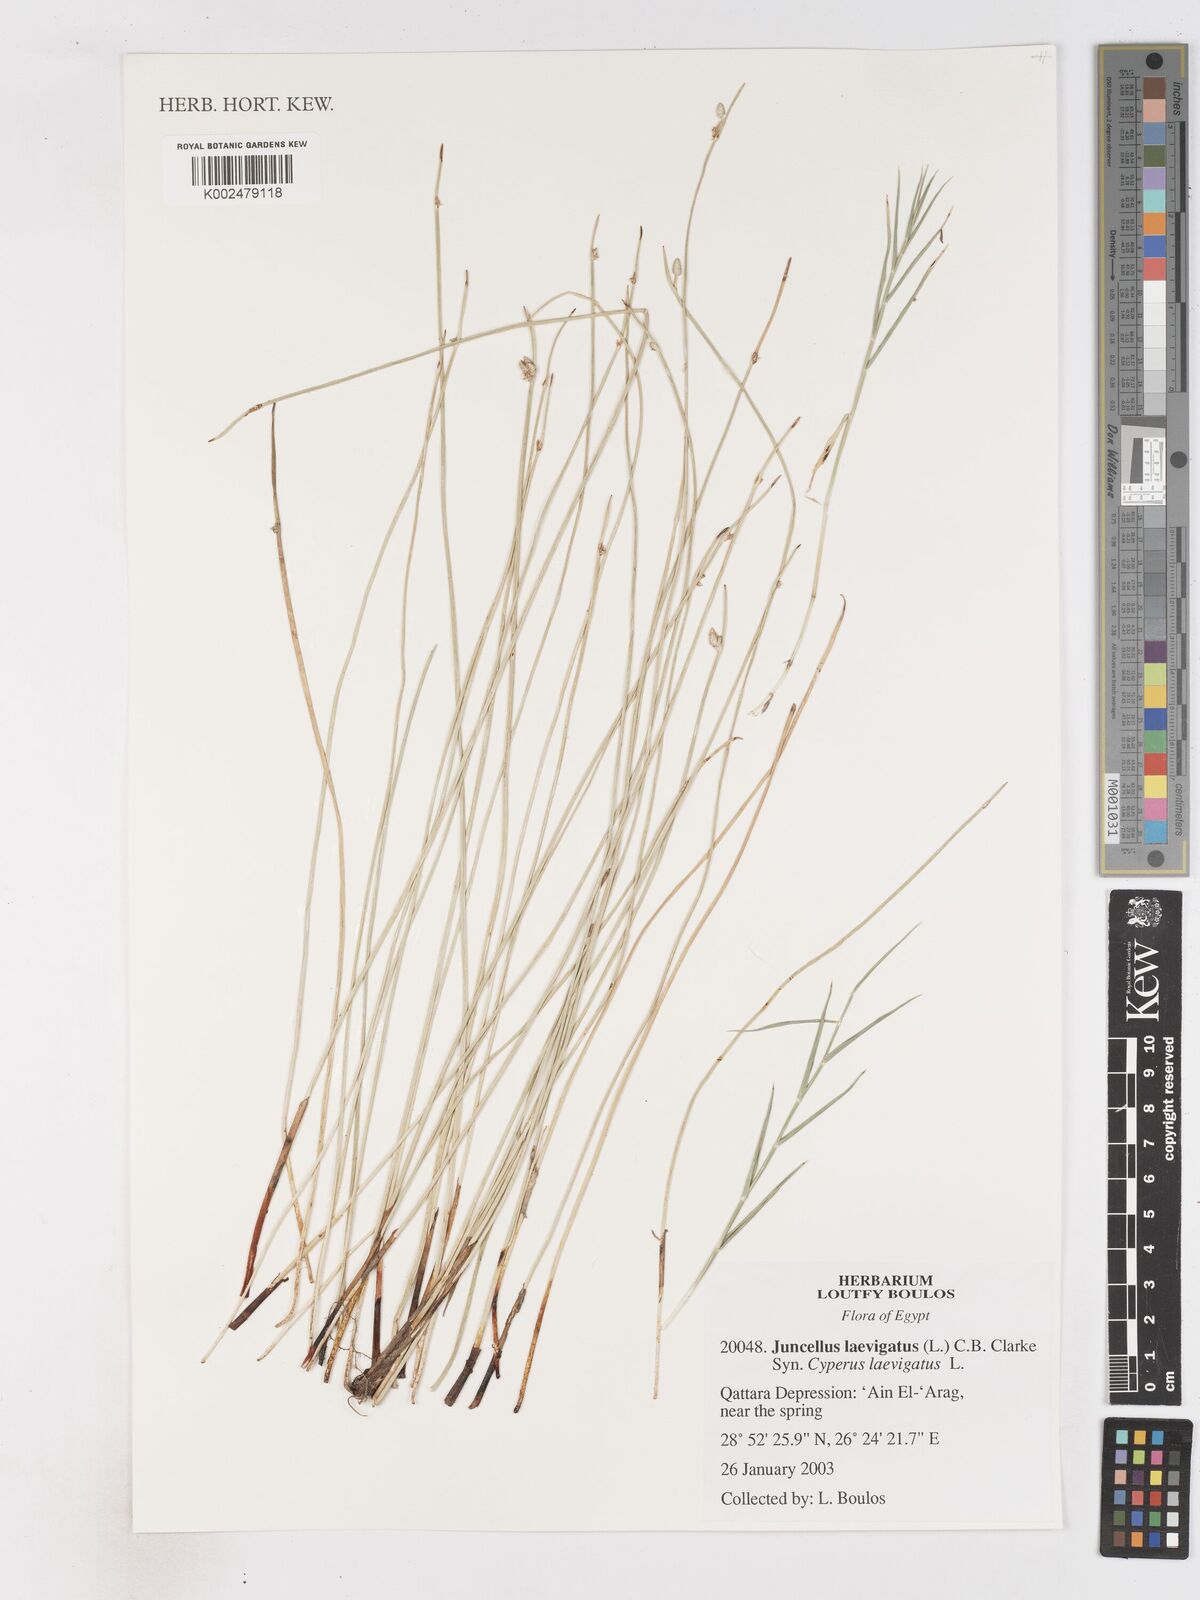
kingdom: Plantae
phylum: Tracheophyta
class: Liliopsida
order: Poales
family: Cyperaceae
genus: Cyperus
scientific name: Cyperus laevigatus
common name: Smooth flat sedge
